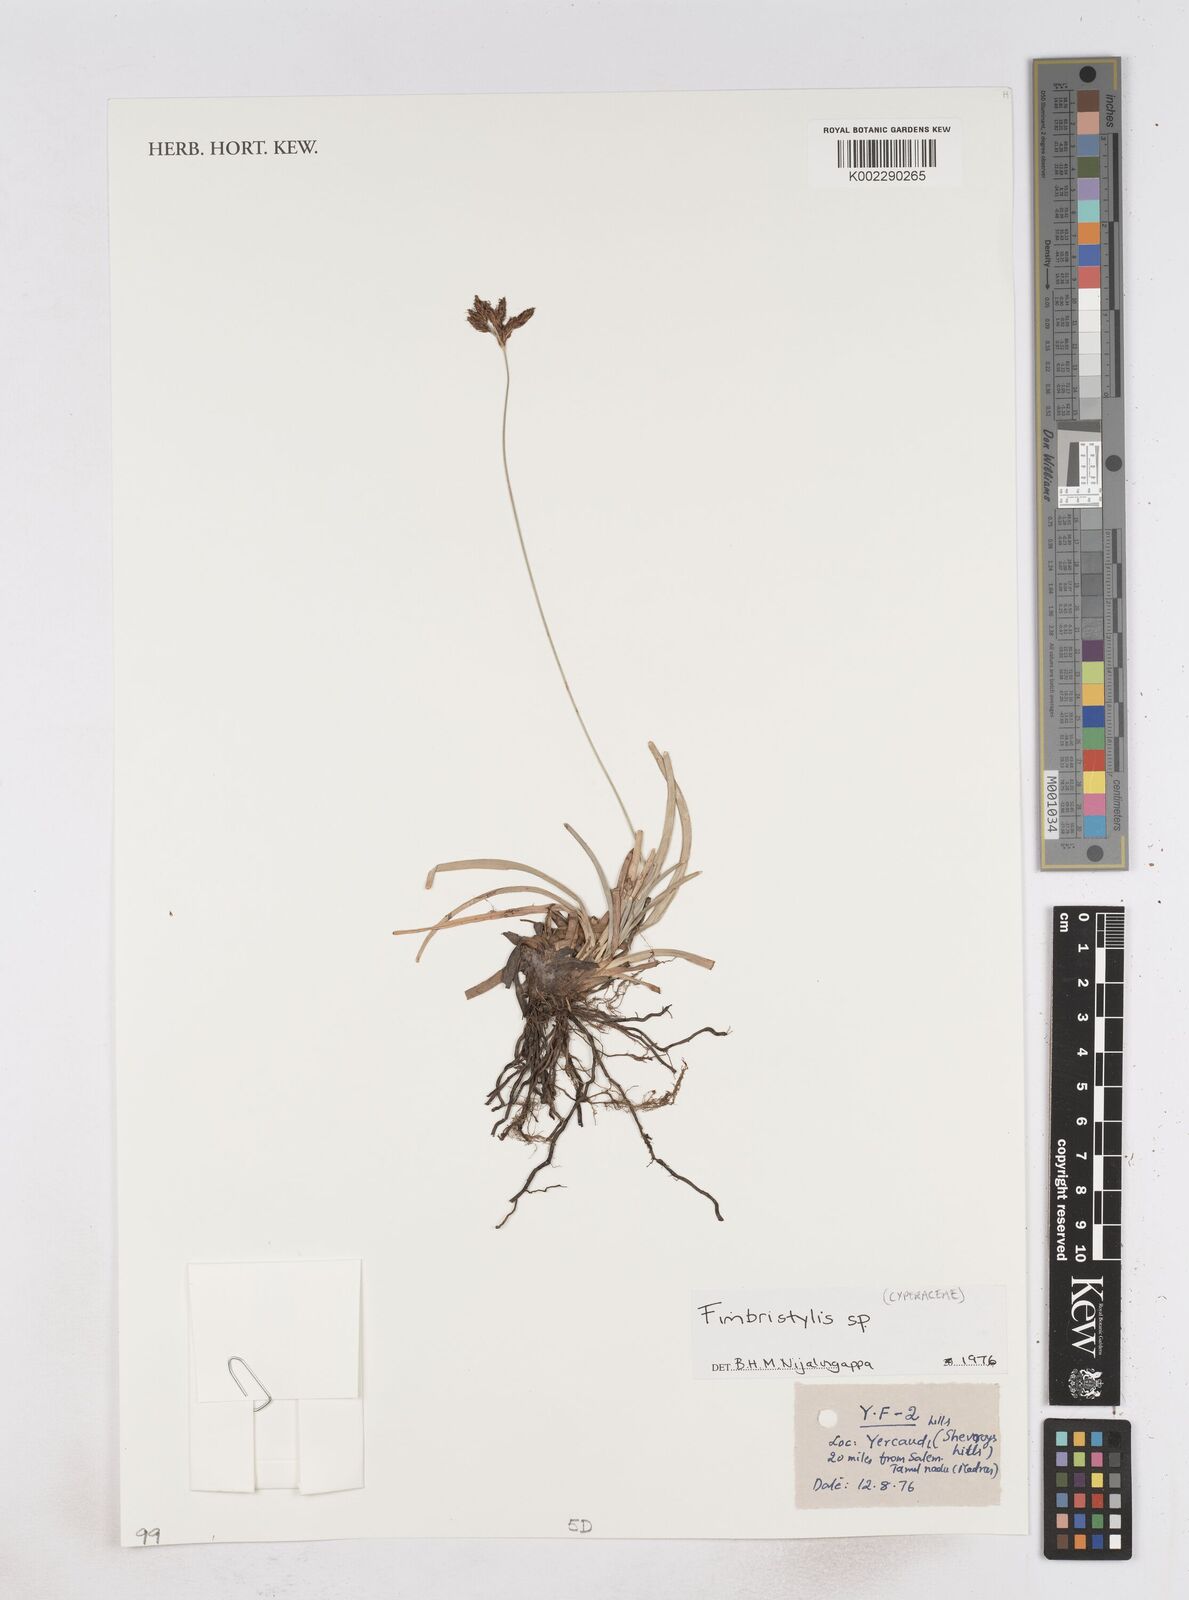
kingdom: Plantae
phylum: Tracheophyta
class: Liliopsida
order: Poales
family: Cyperaceae
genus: Fimbristylis
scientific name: Fimbristylis
